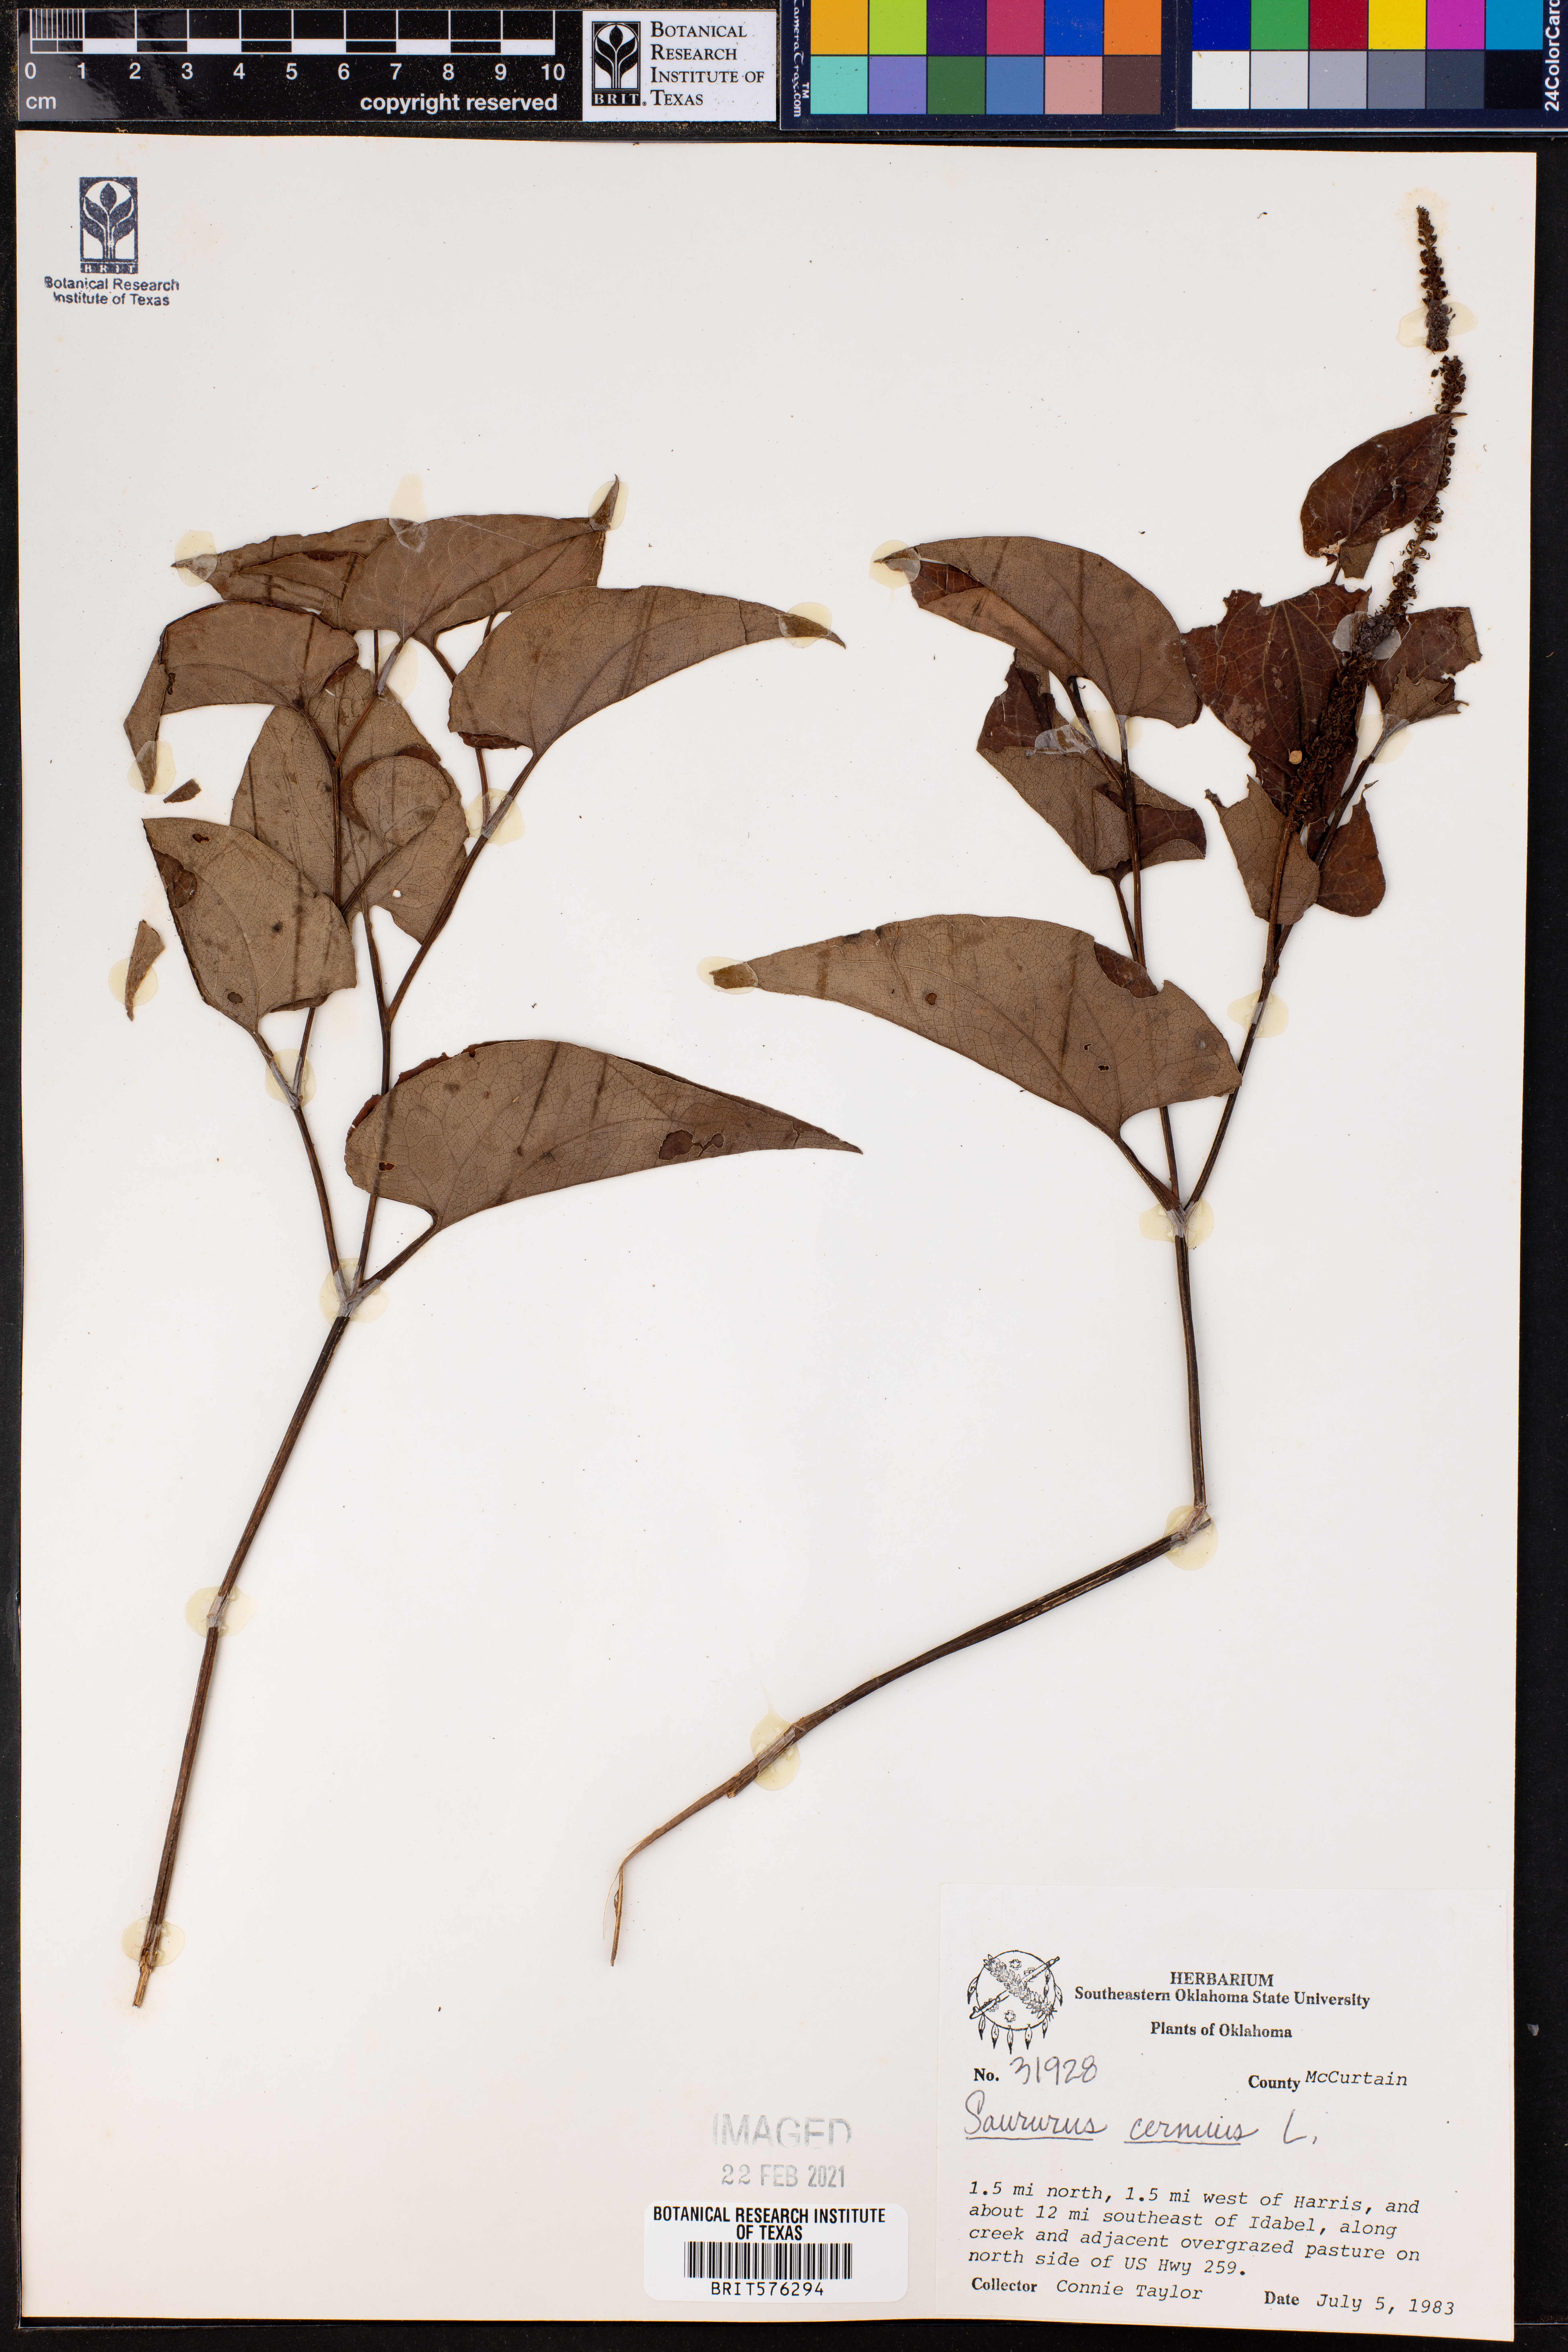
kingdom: Plantae
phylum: Tracheophyta
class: Magnoliopsida
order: Piperales
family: Saururaceae
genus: Saururus
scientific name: Saururus cernuus
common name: Lizard's-tail
